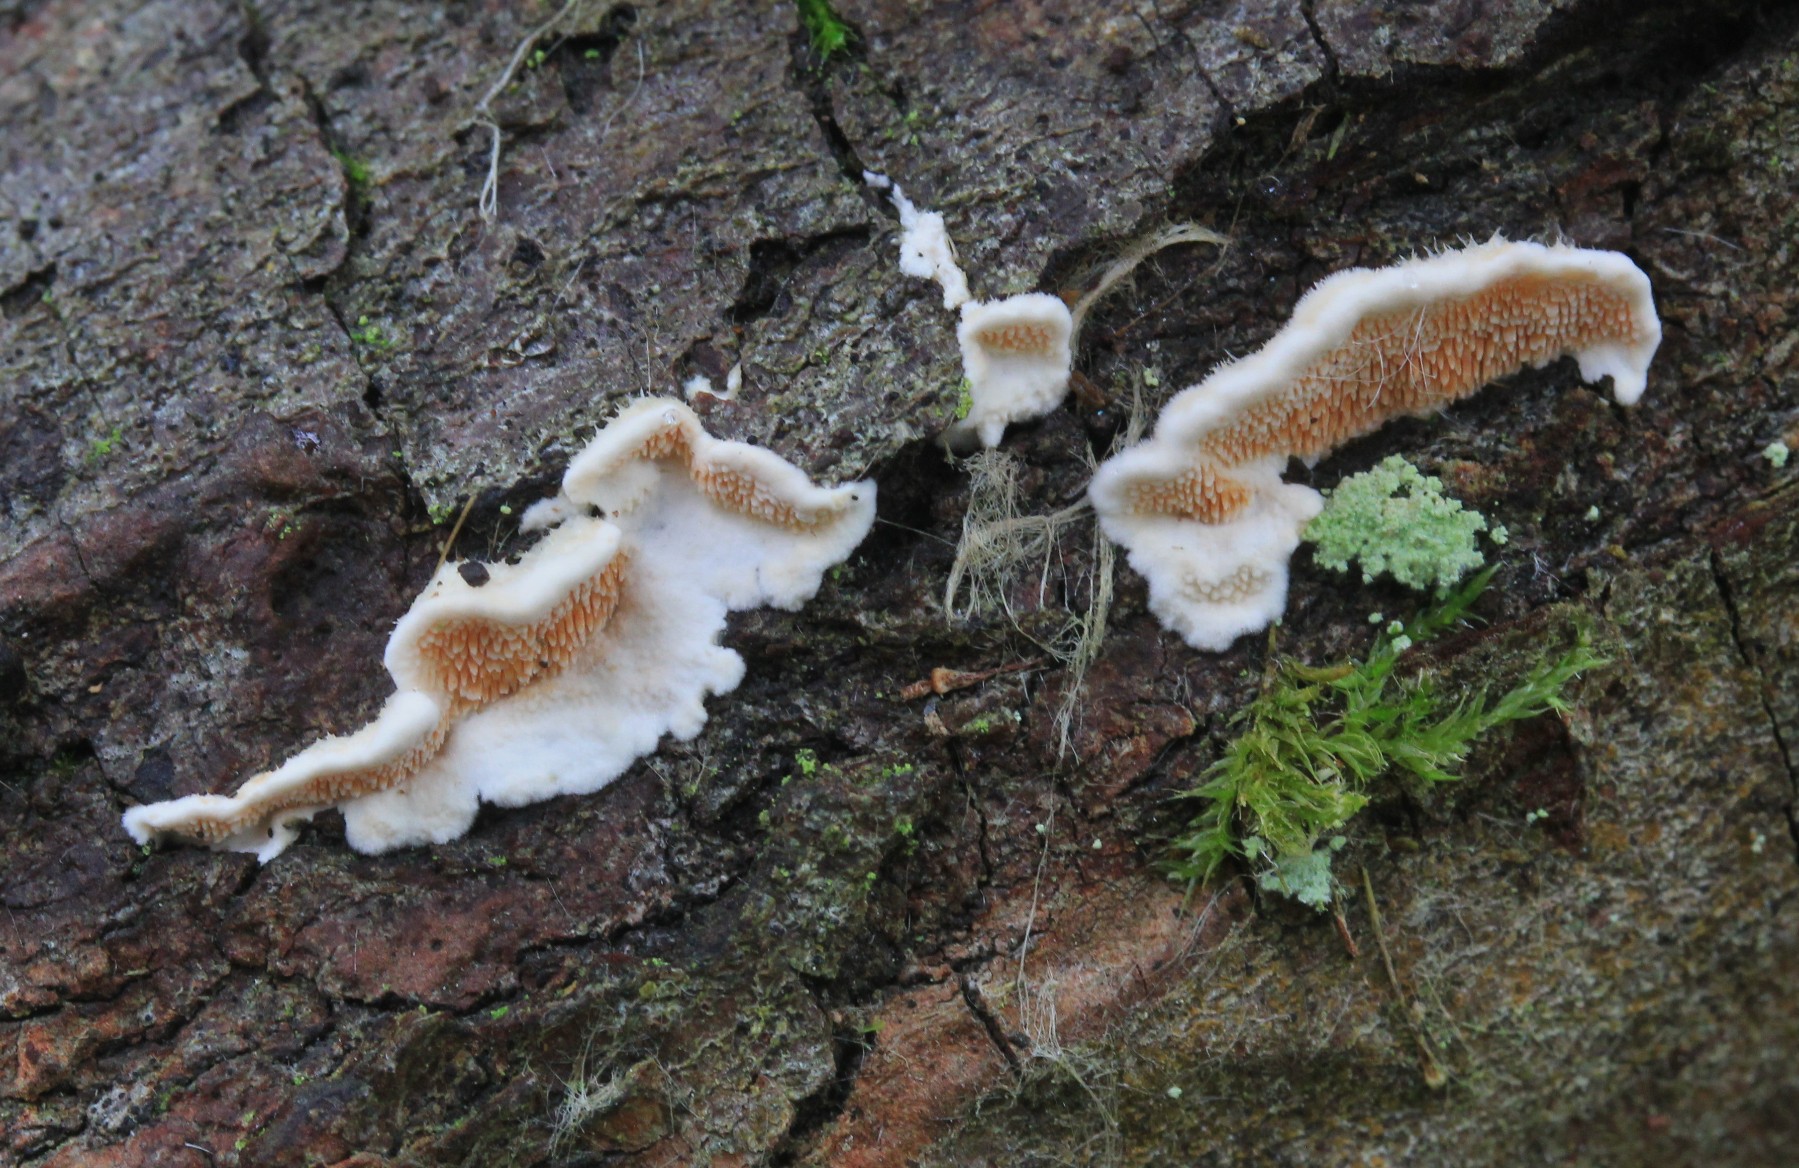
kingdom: Fungi
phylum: Basidiomycota
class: Agaricomycetes
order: Polyporales
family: Steccherinaceae
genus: Steccherinum
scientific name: Steccherinum ochraceum
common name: almindelig skønpig
